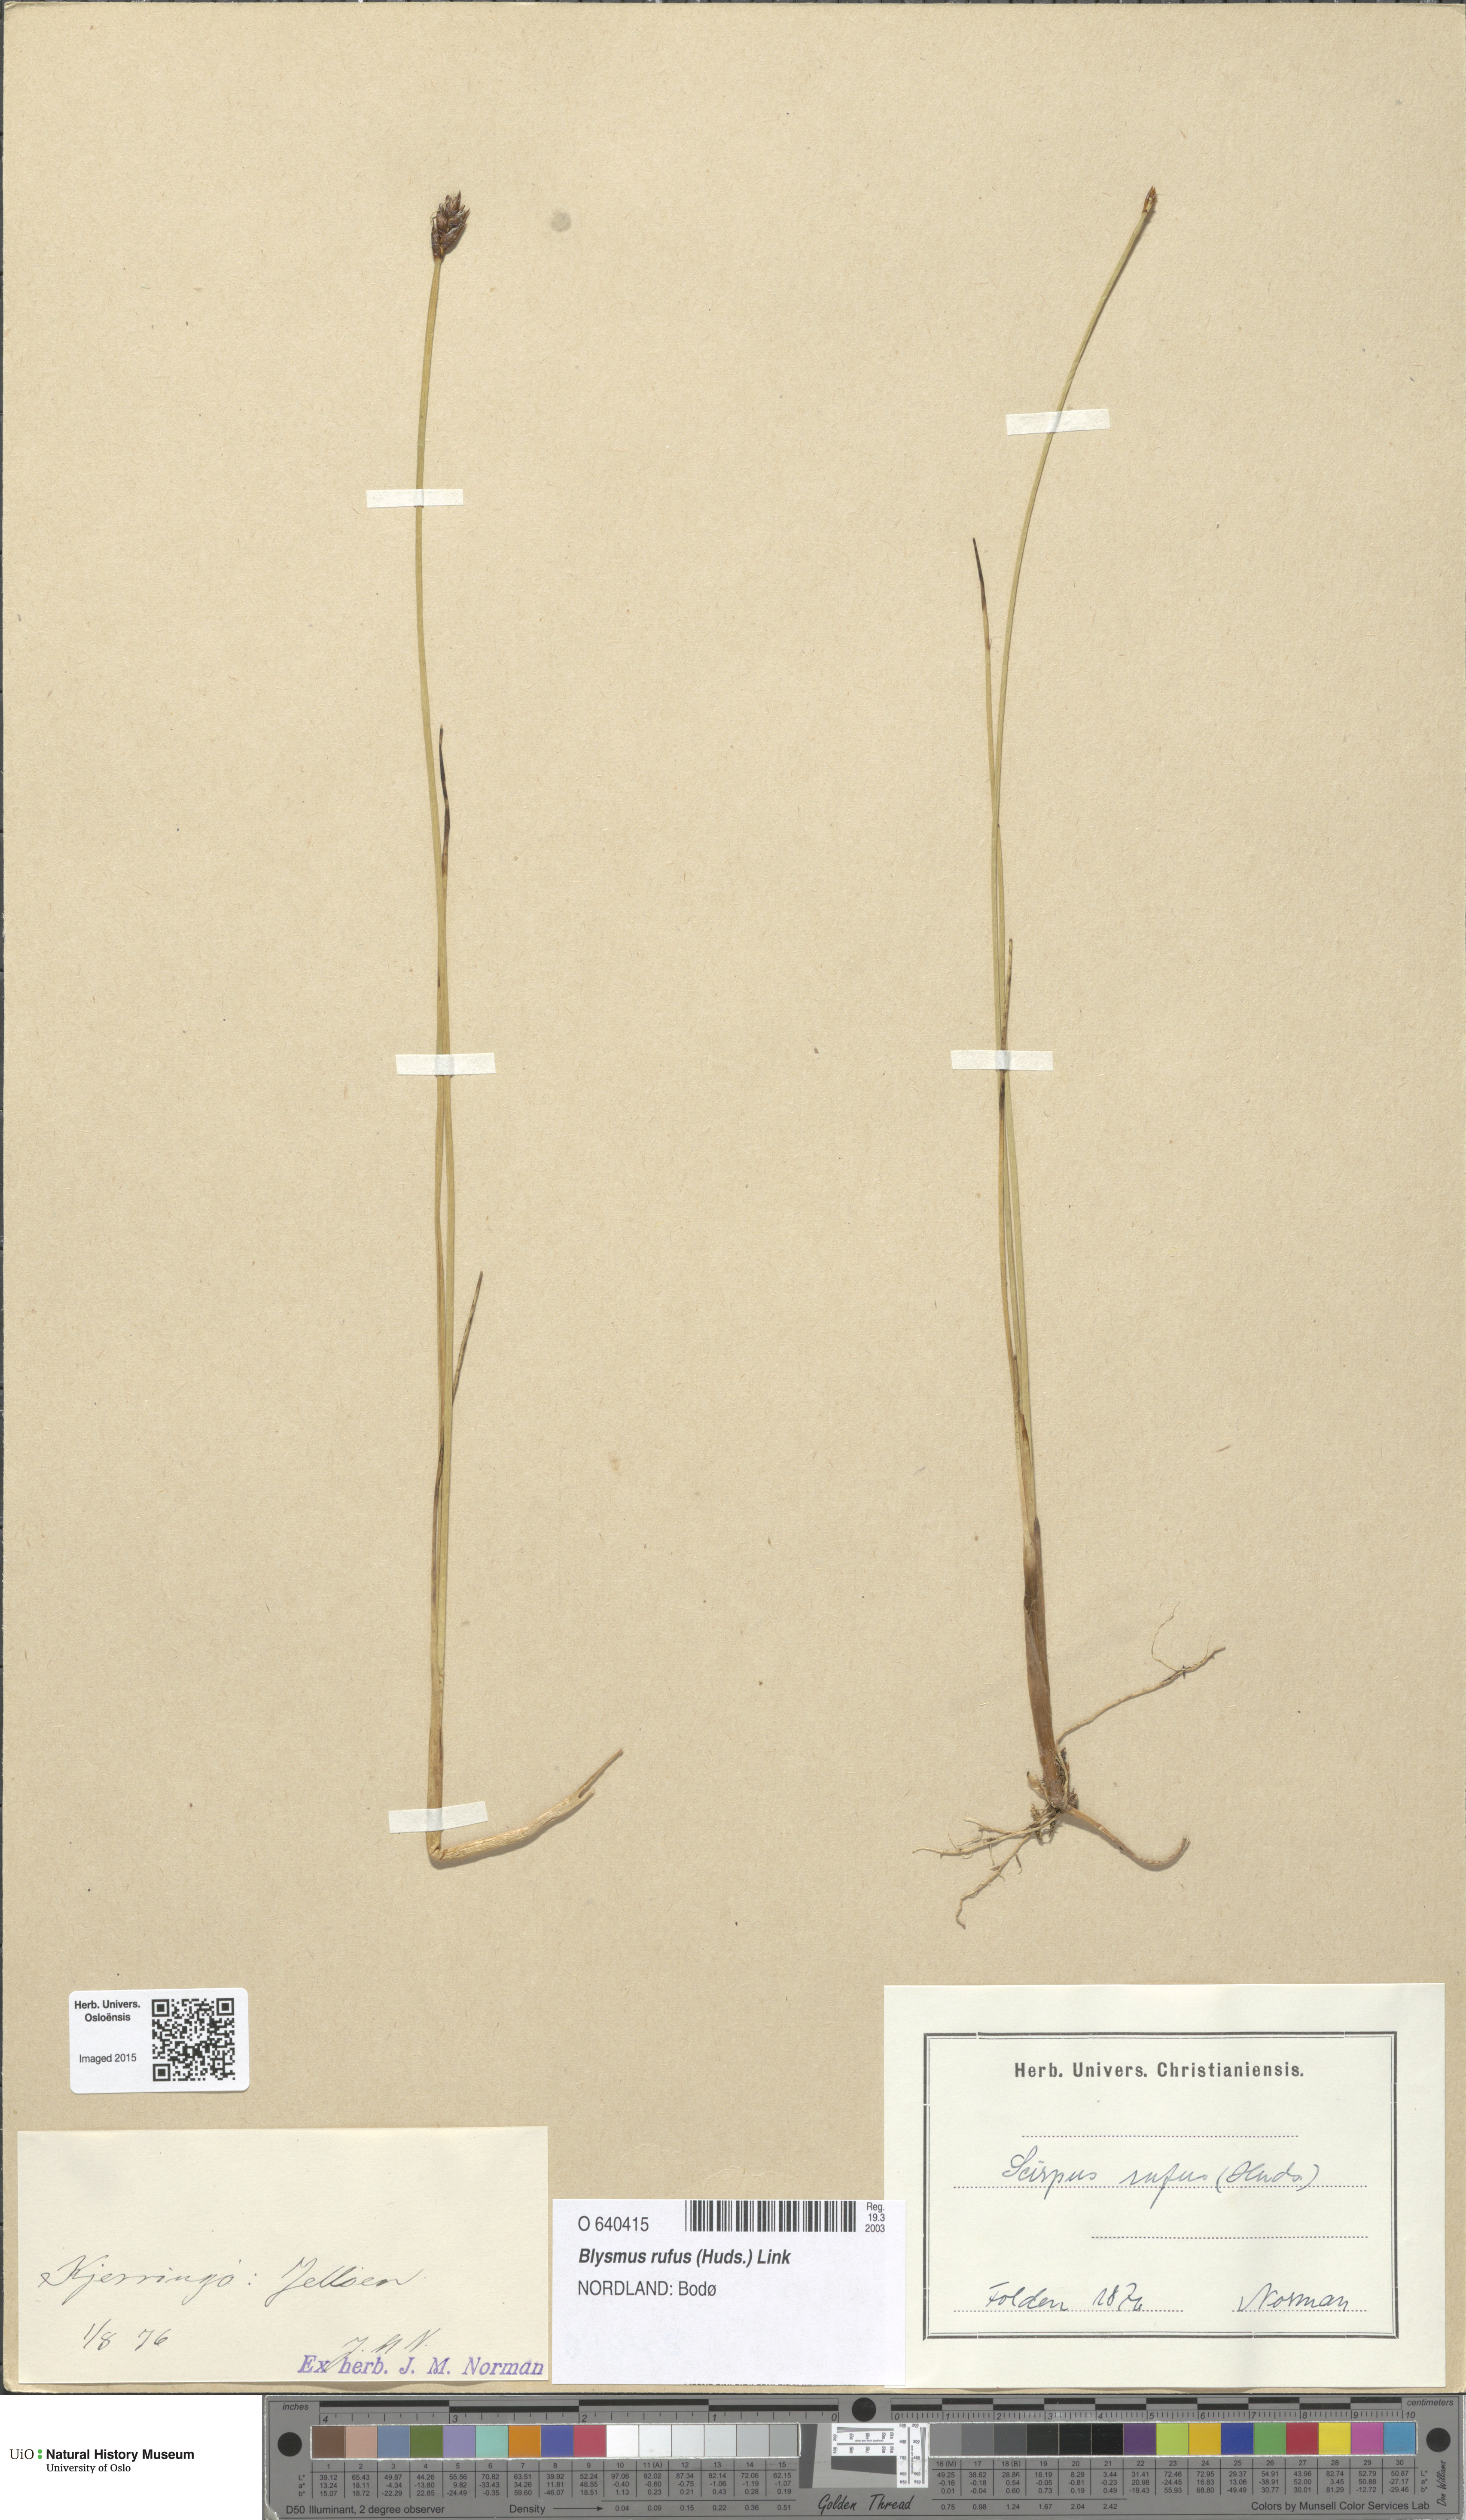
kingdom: Plantae
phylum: Tracheophyta
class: Liliopsida
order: Poales
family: Cyperaceae
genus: Blysmus
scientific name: Blysmus rufus
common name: Saltmarsh flat-sedge
